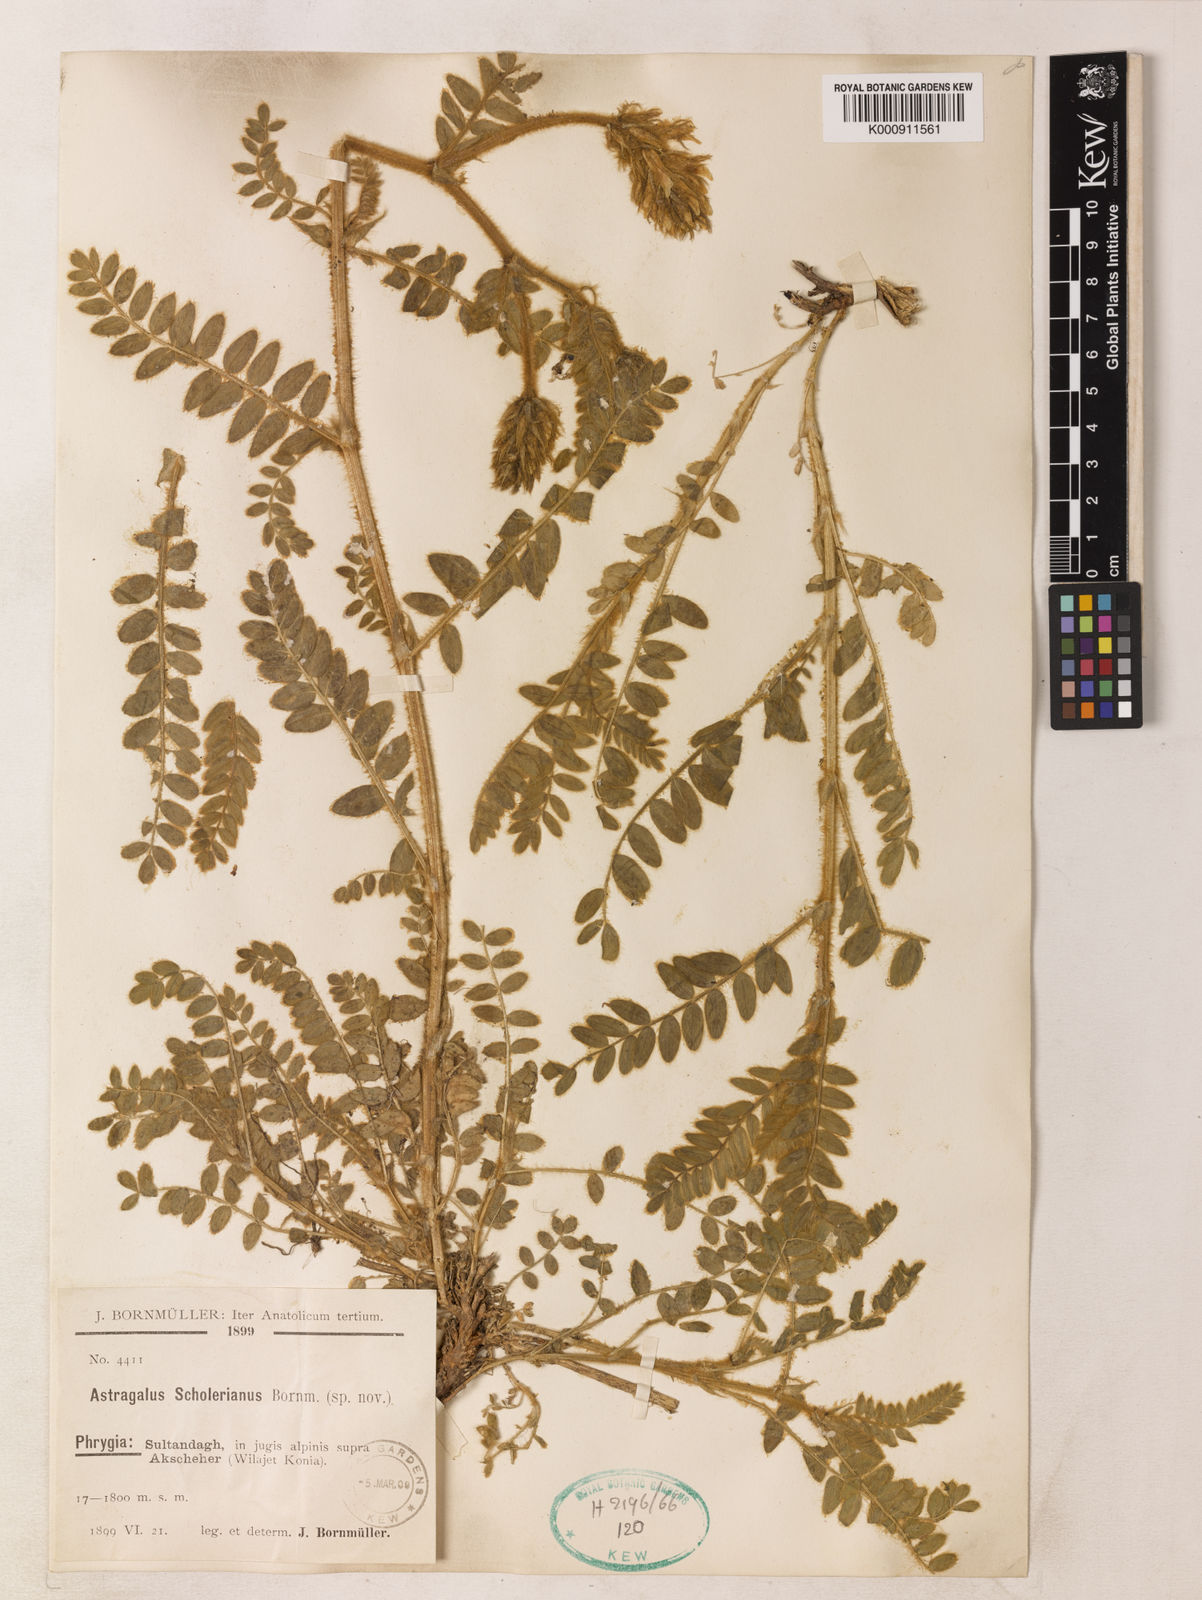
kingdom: Plantae
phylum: Tracheophyta
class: Magnoliopsida
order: Fabales
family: Fabaceae
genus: Astragalus
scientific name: Astragalus scholerianus
